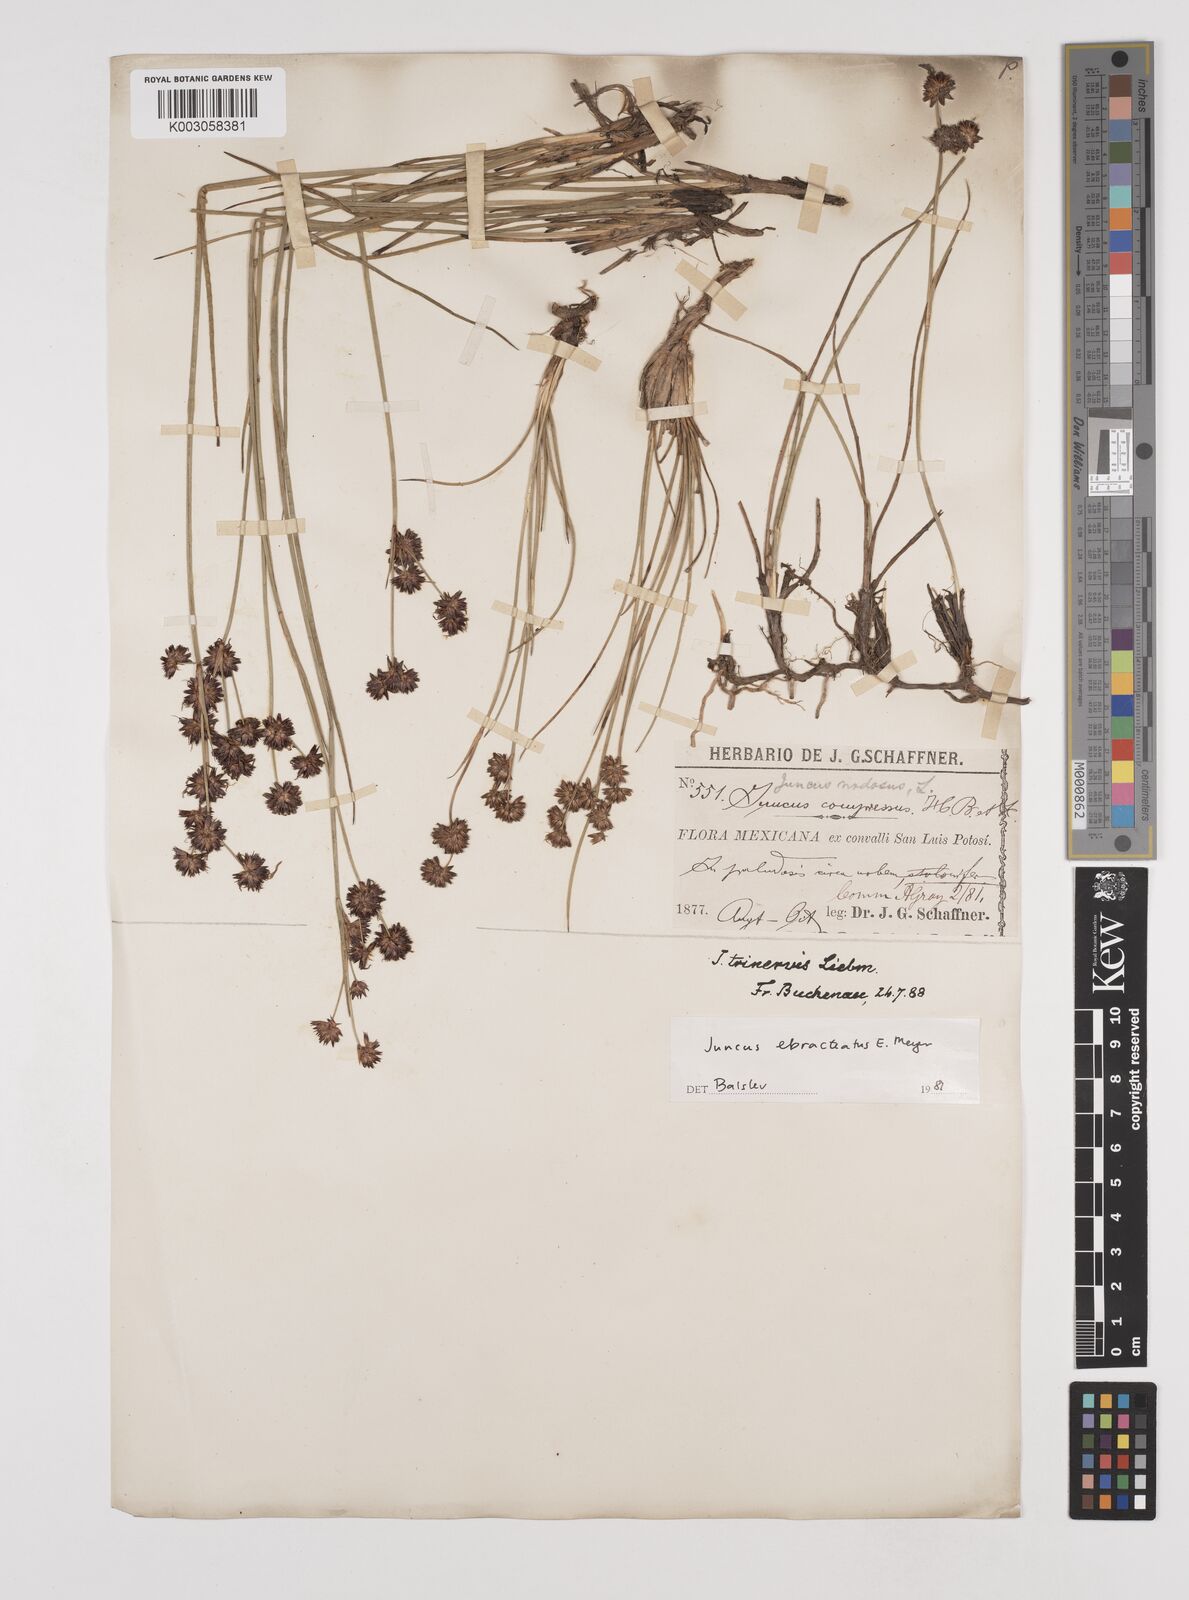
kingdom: Plantae
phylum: Tracheophyta
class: Liliopsida
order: Poales
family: Juncaceae
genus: Juncus
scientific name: Juncus ebracteatus
